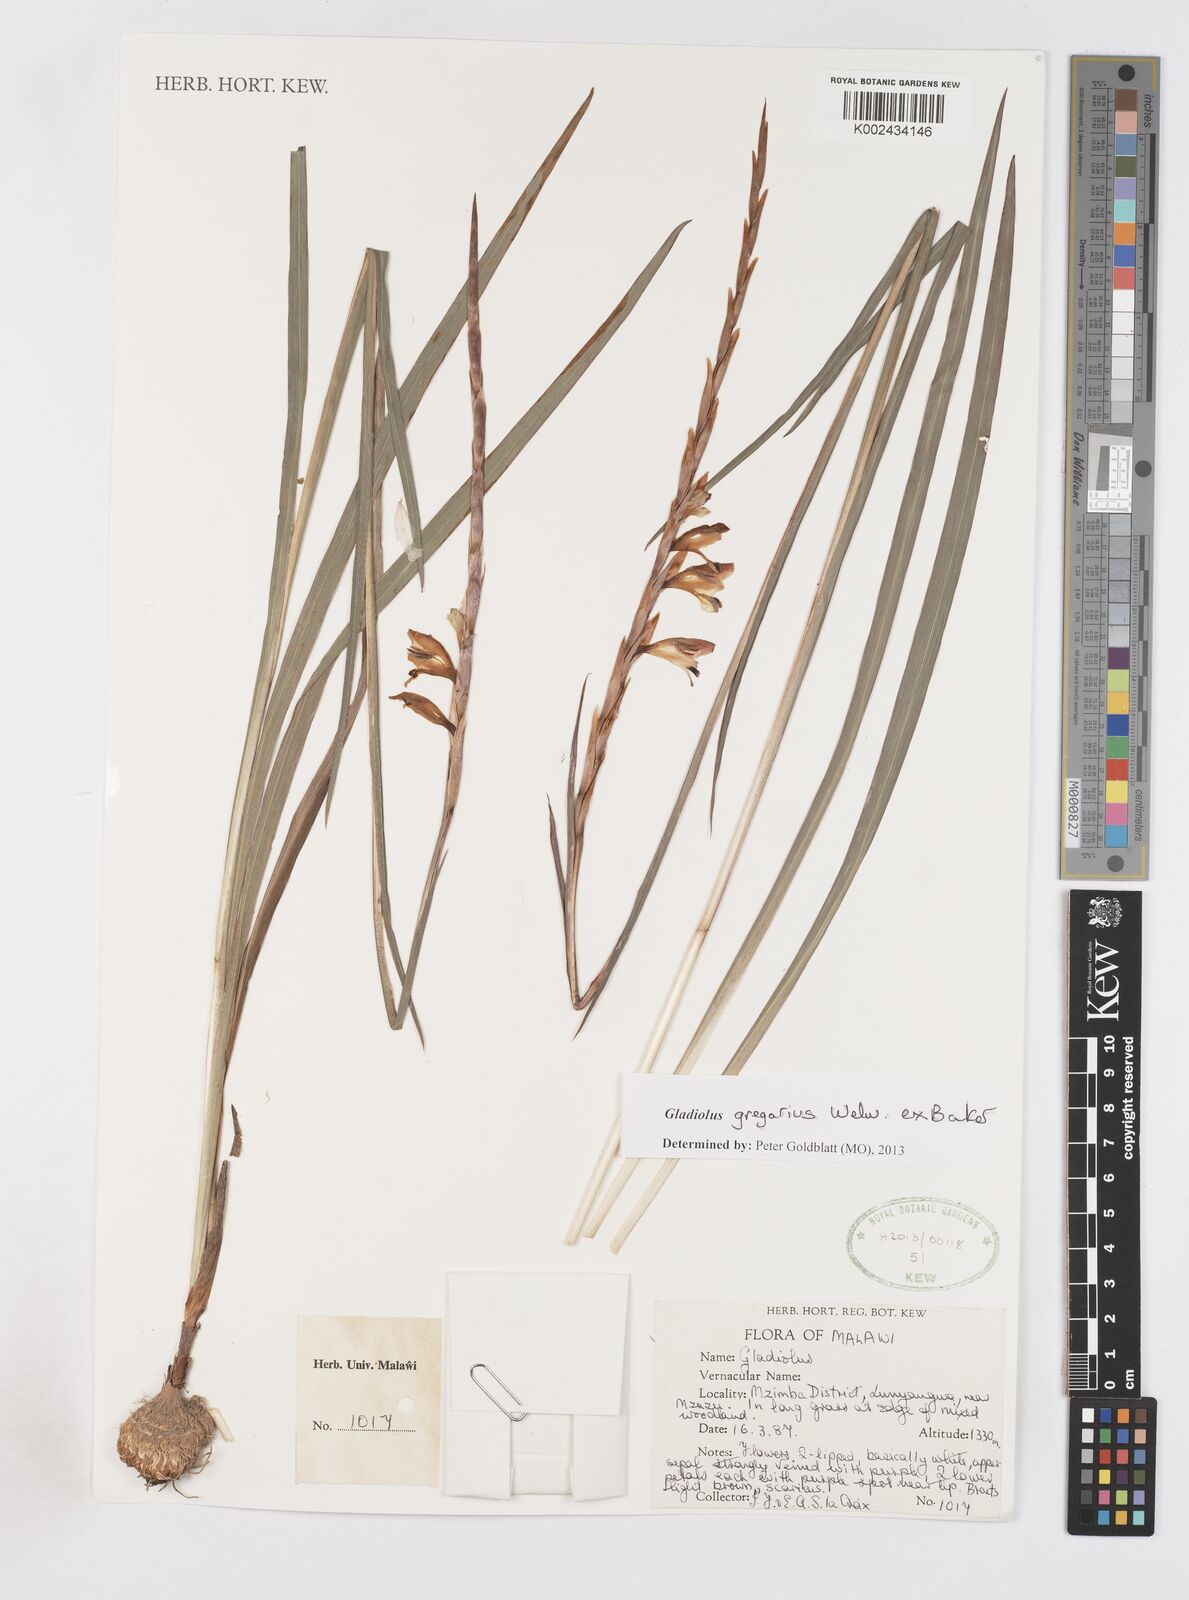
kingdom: Plantae
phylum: Tracheophyta
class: Liliopsida
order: Asparagales
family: Iridaceae
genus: Gladiolus
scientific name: Gladiolus gregarius
